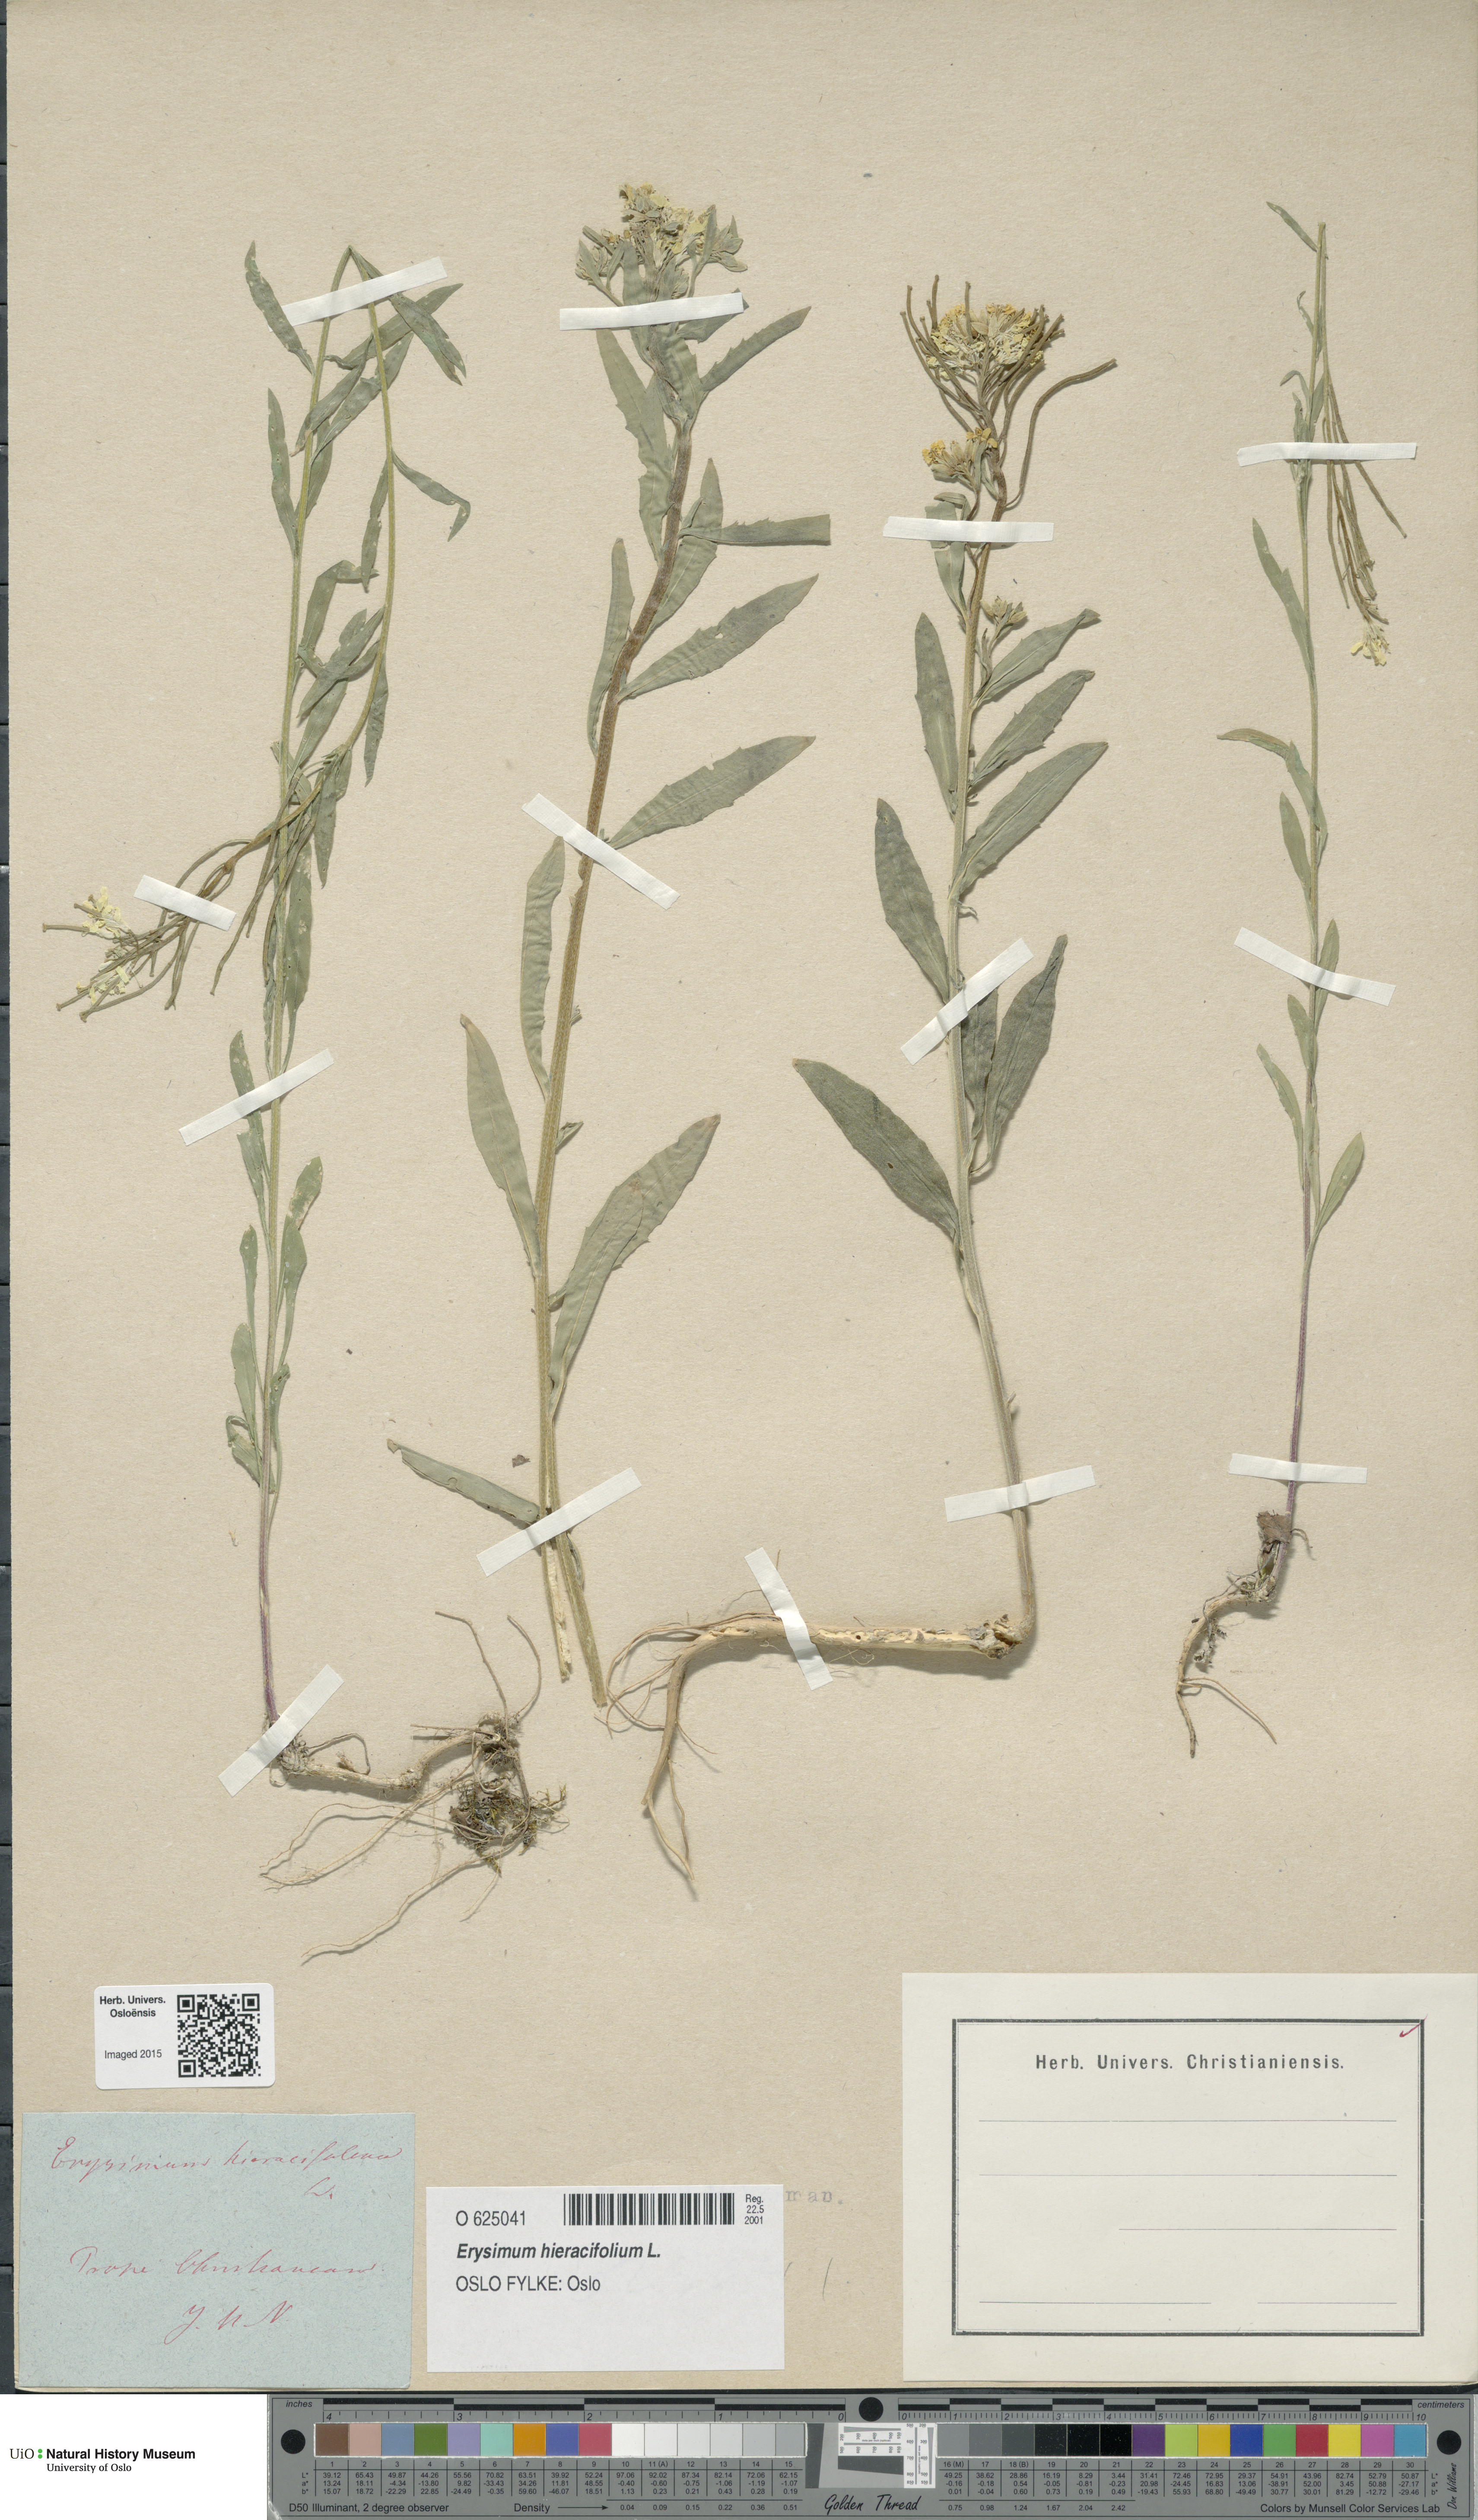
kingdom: Plantae
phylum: Tracheophyta
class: Magnoliopsida
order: Brassicales
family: Brassicaceae
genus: Erysimum
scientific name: Erysimum virgatum
